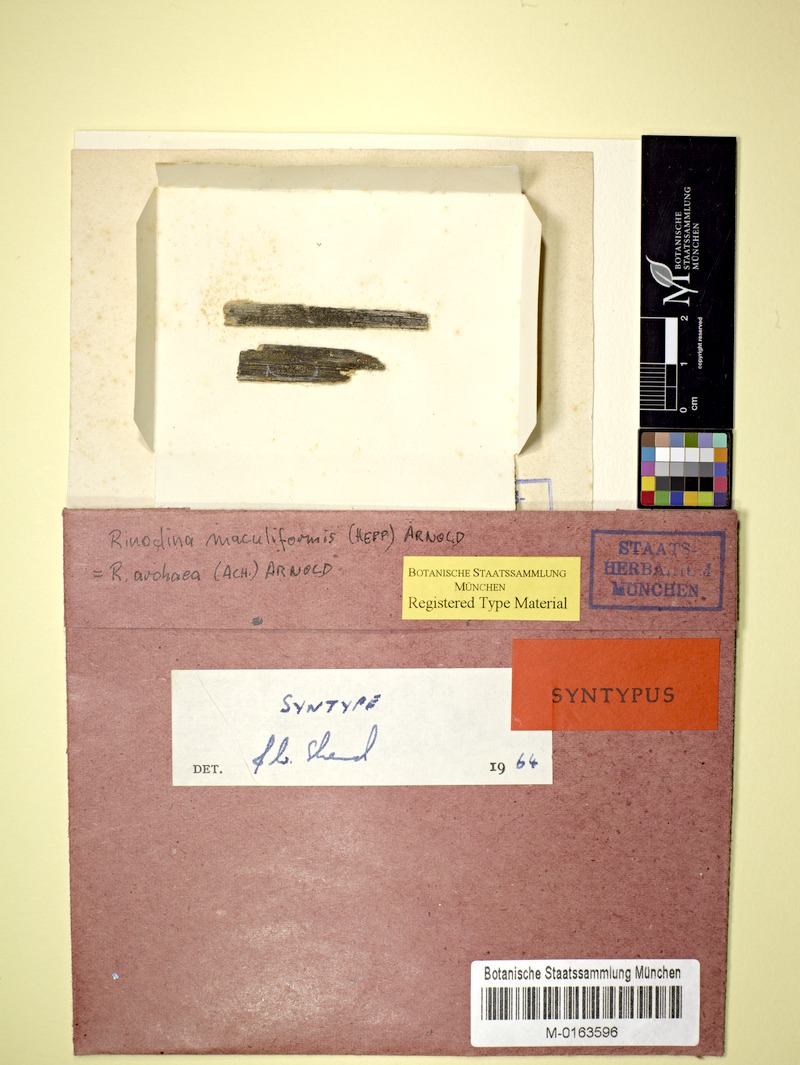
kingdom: Fungi
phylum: Ascomycota
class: Lecanoromycetes
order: Caliciales
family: Physciaceae
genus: Rinodina
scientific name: Rinodina archaea
